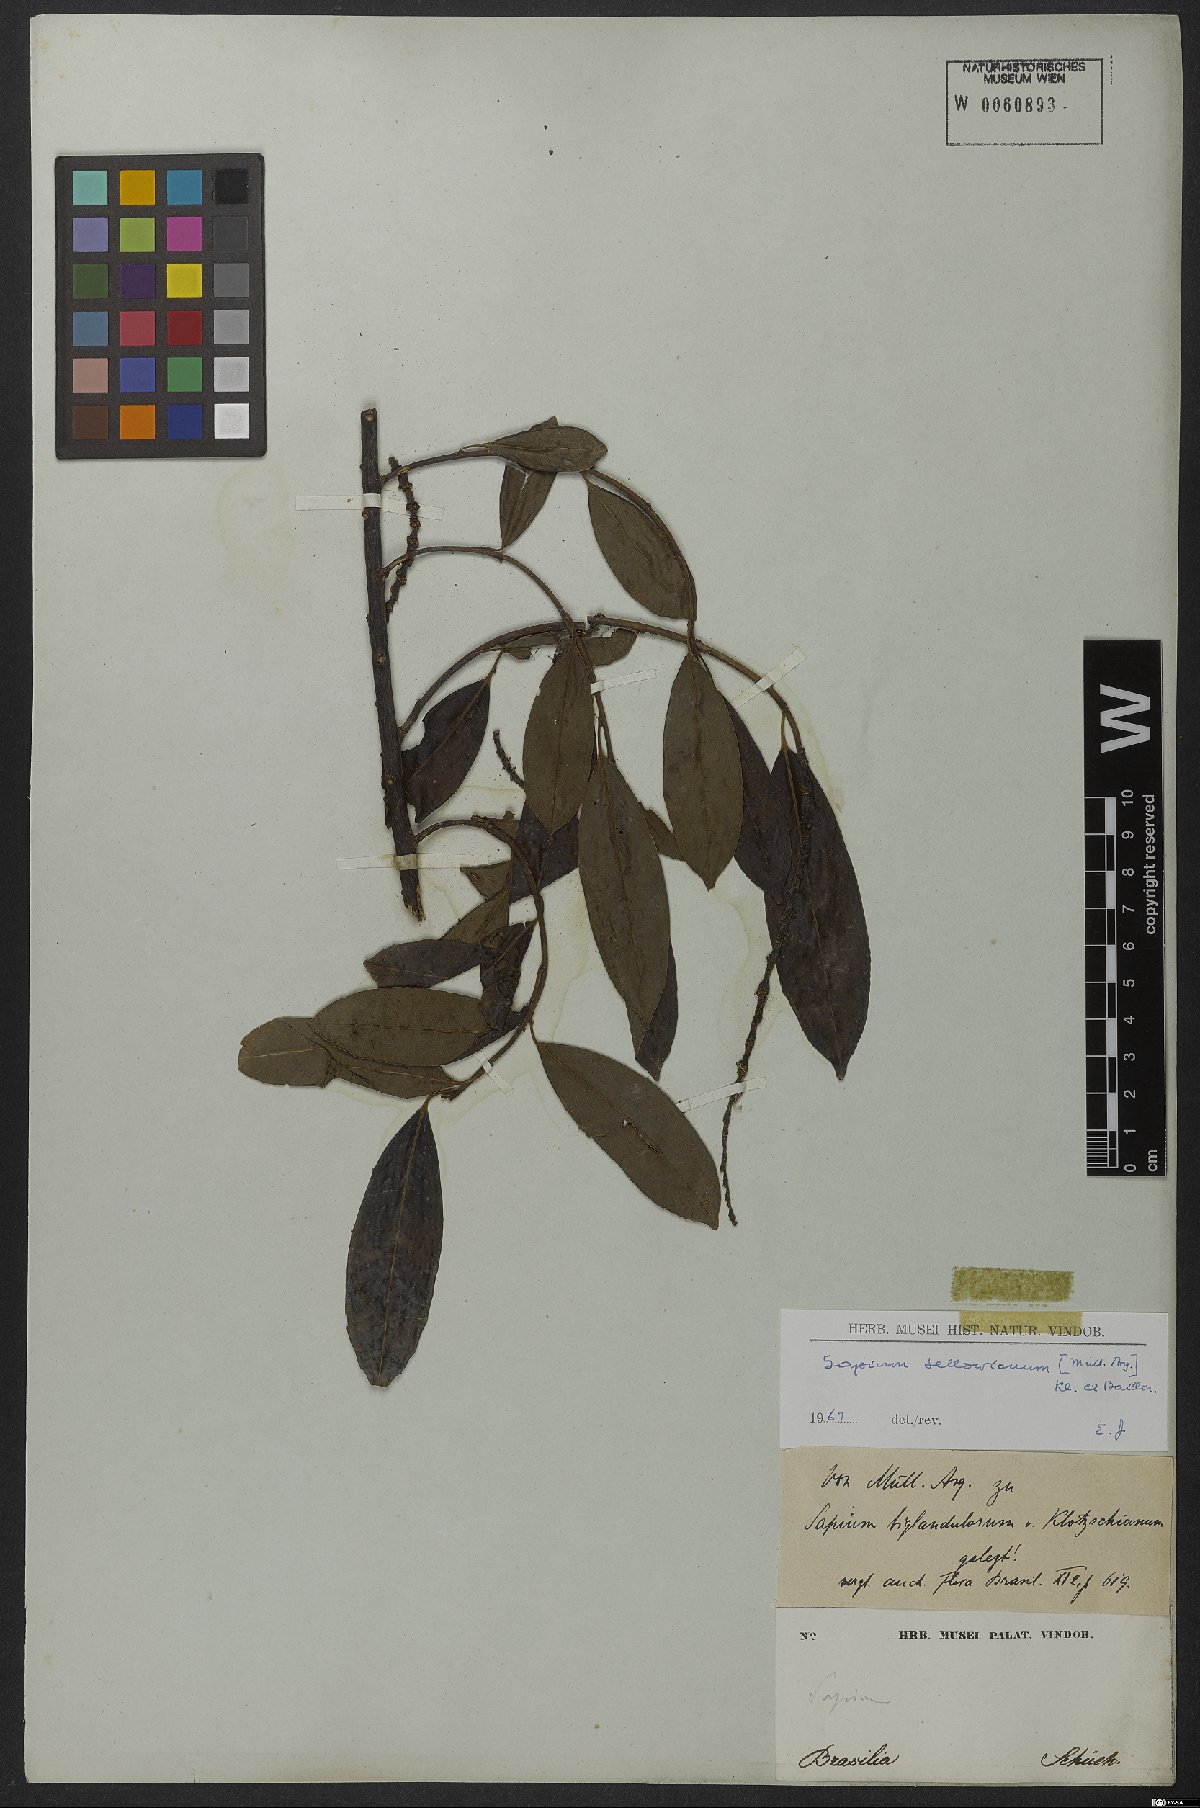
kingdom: Plantae
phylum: Tracheophyta
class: Magnoliopsida
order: Malpighiales
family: Euphorbiaceae
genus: Sapium
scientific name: Sapium sellowianum
